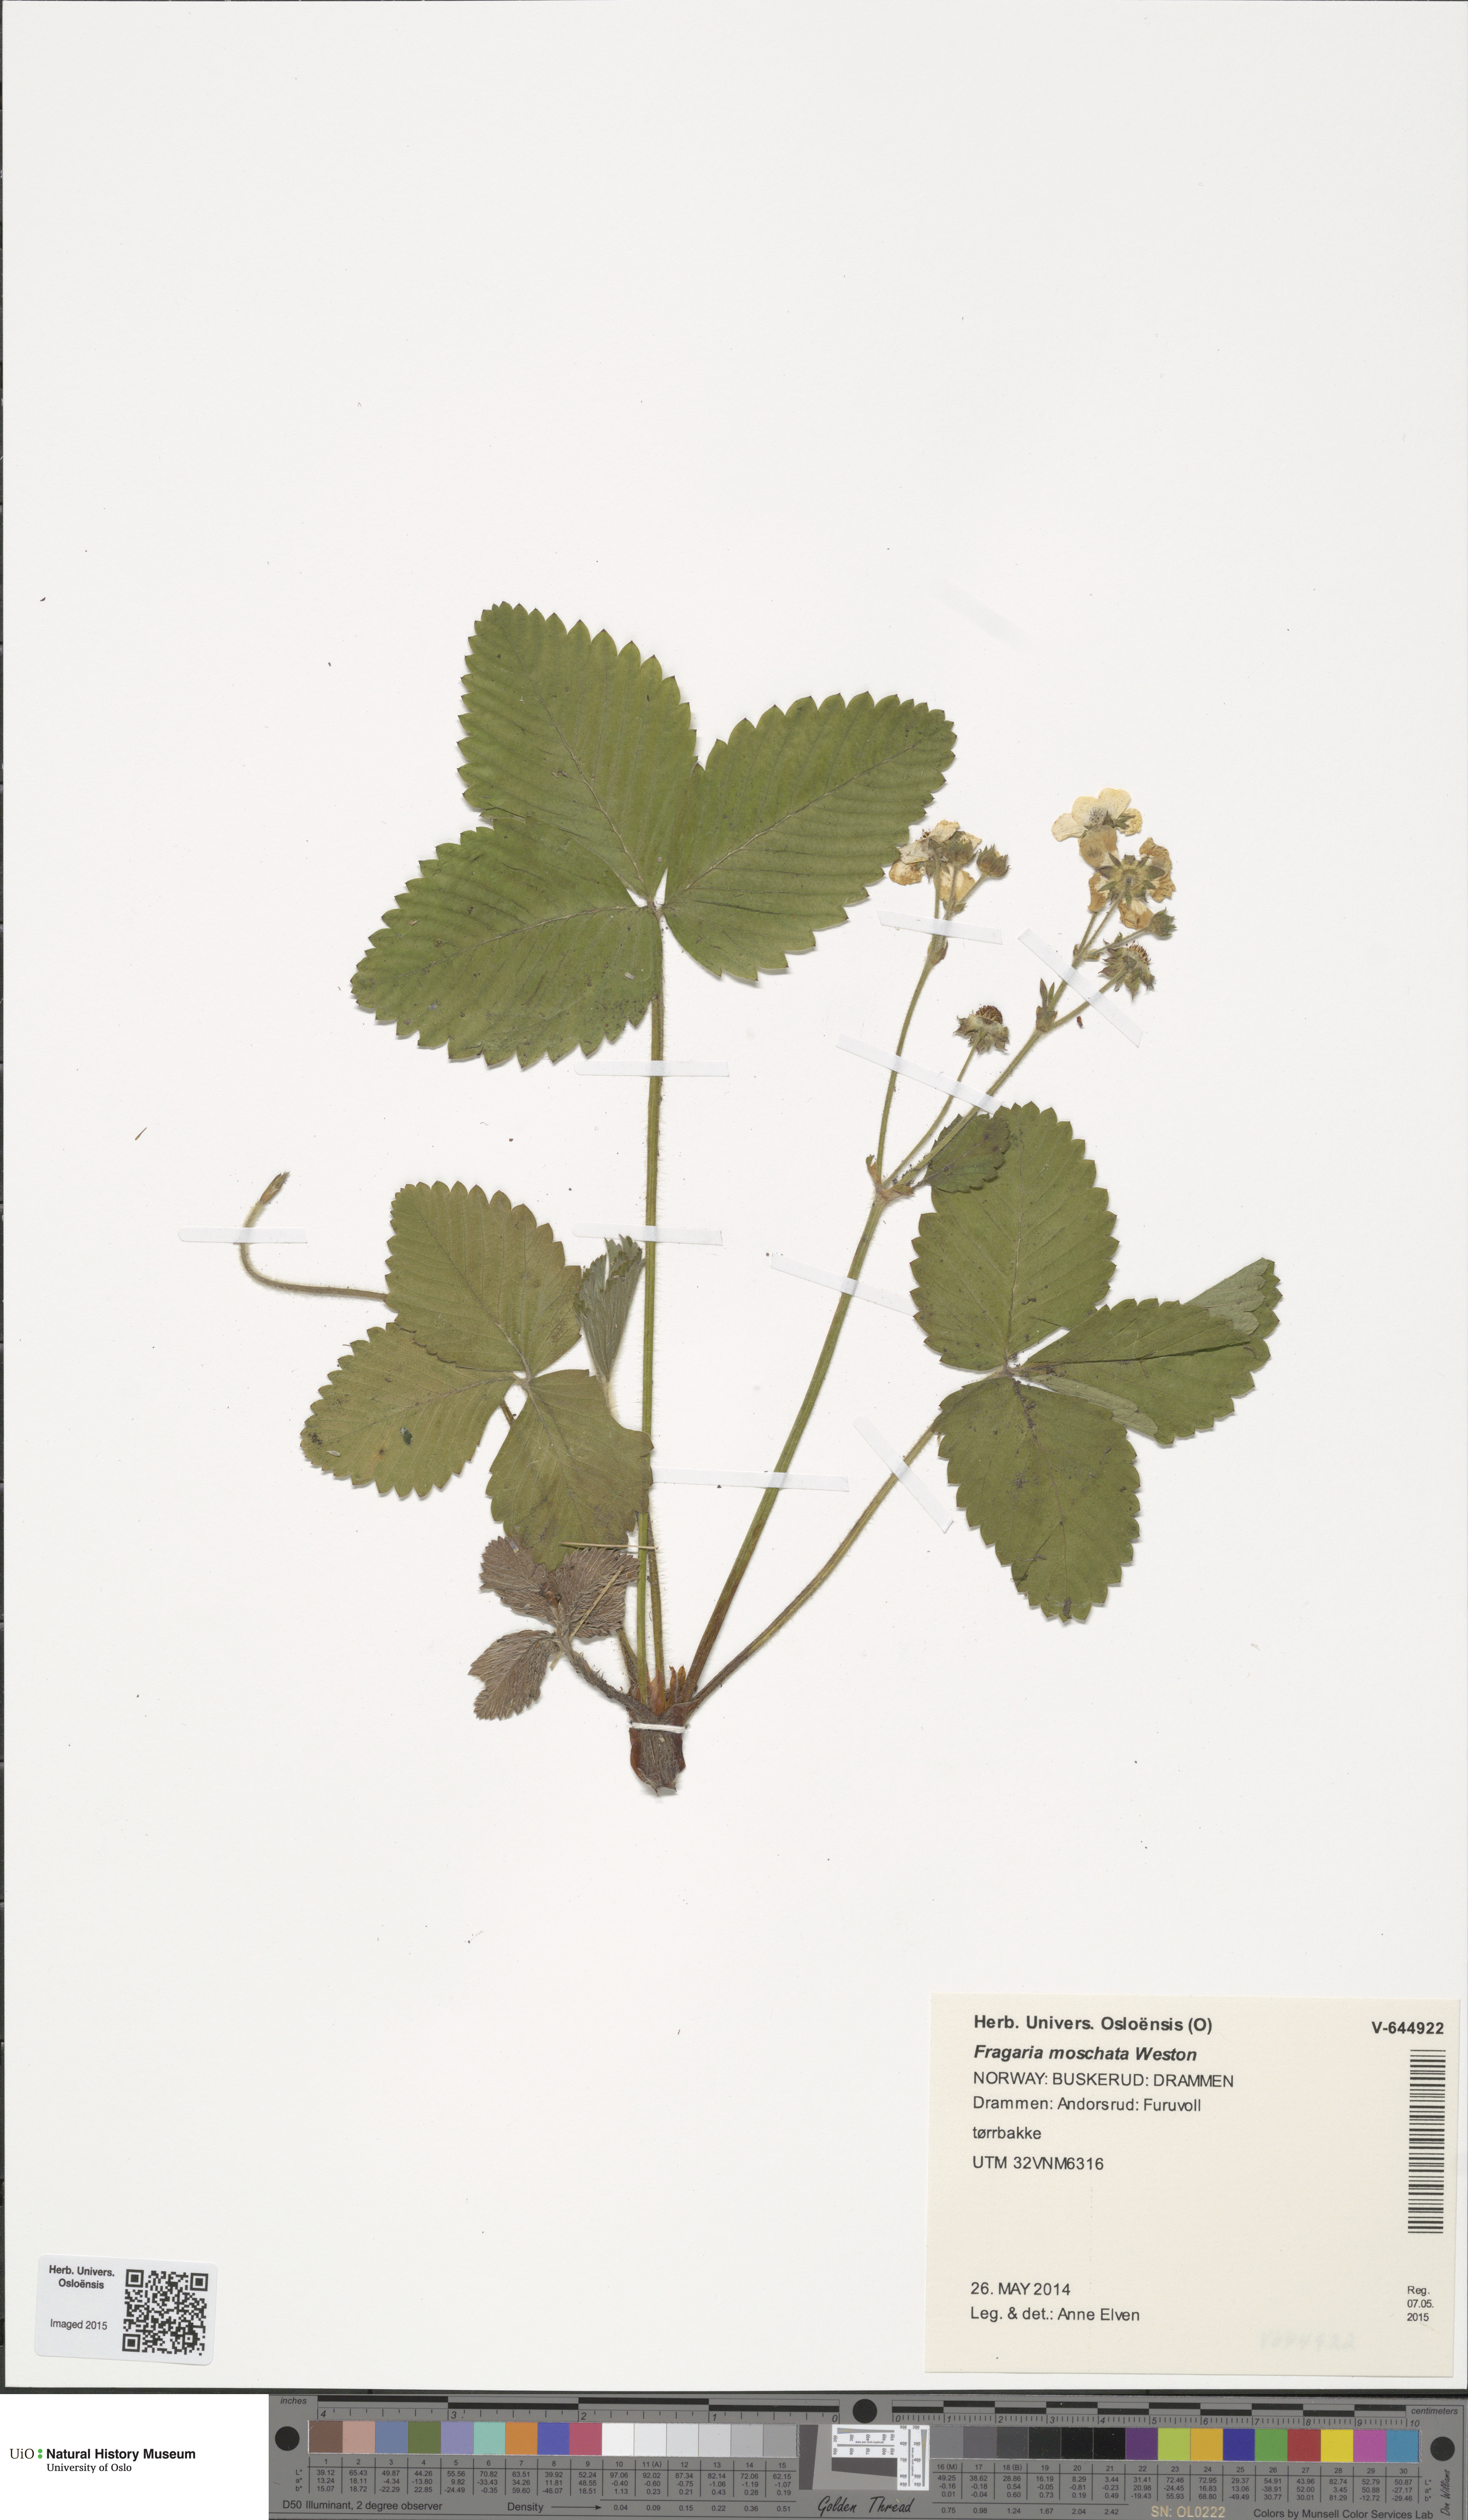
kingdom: Plantae
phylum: Tracheophyta
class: Magnoliopsida
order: Rosales
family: Rosaceae
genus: Fragaria
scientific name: Fragaria moschata
